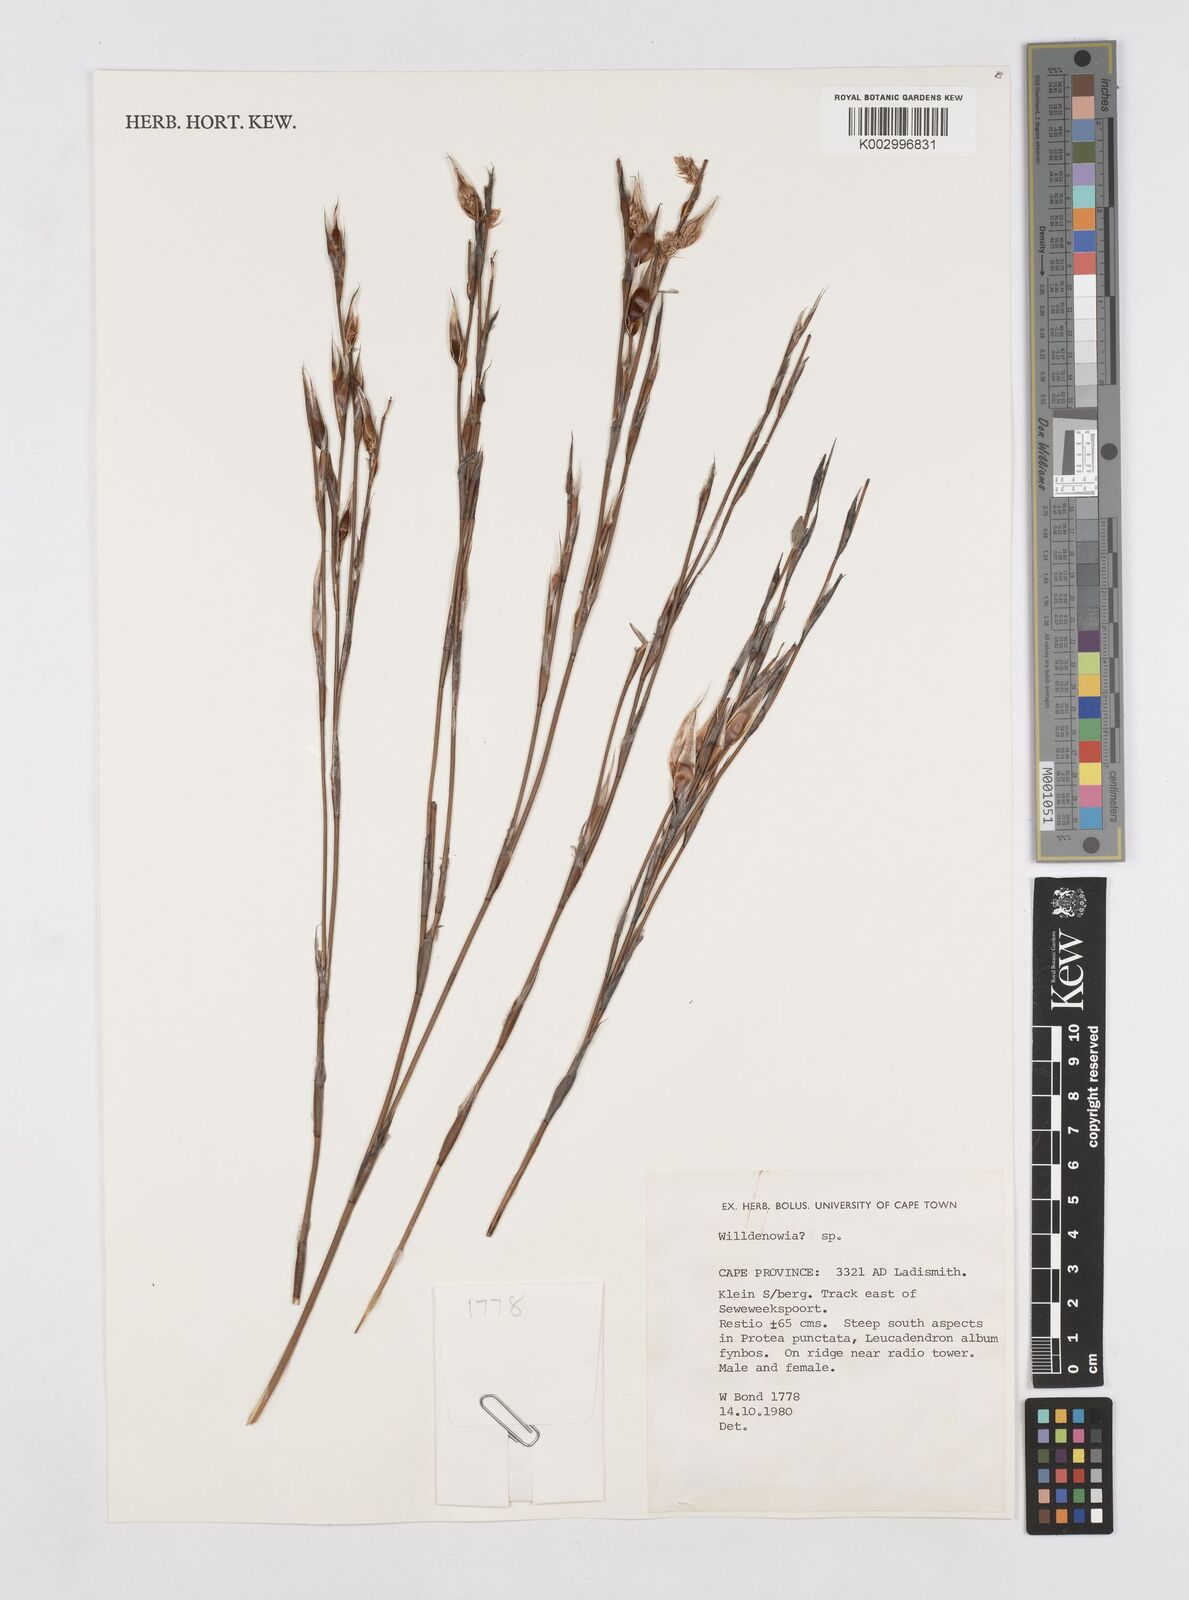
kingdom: Plantae
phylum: Tracheophyta
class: Liliopsida
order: Poales
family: Restionaceae
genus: Willdenowia
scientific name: Willdenowia
